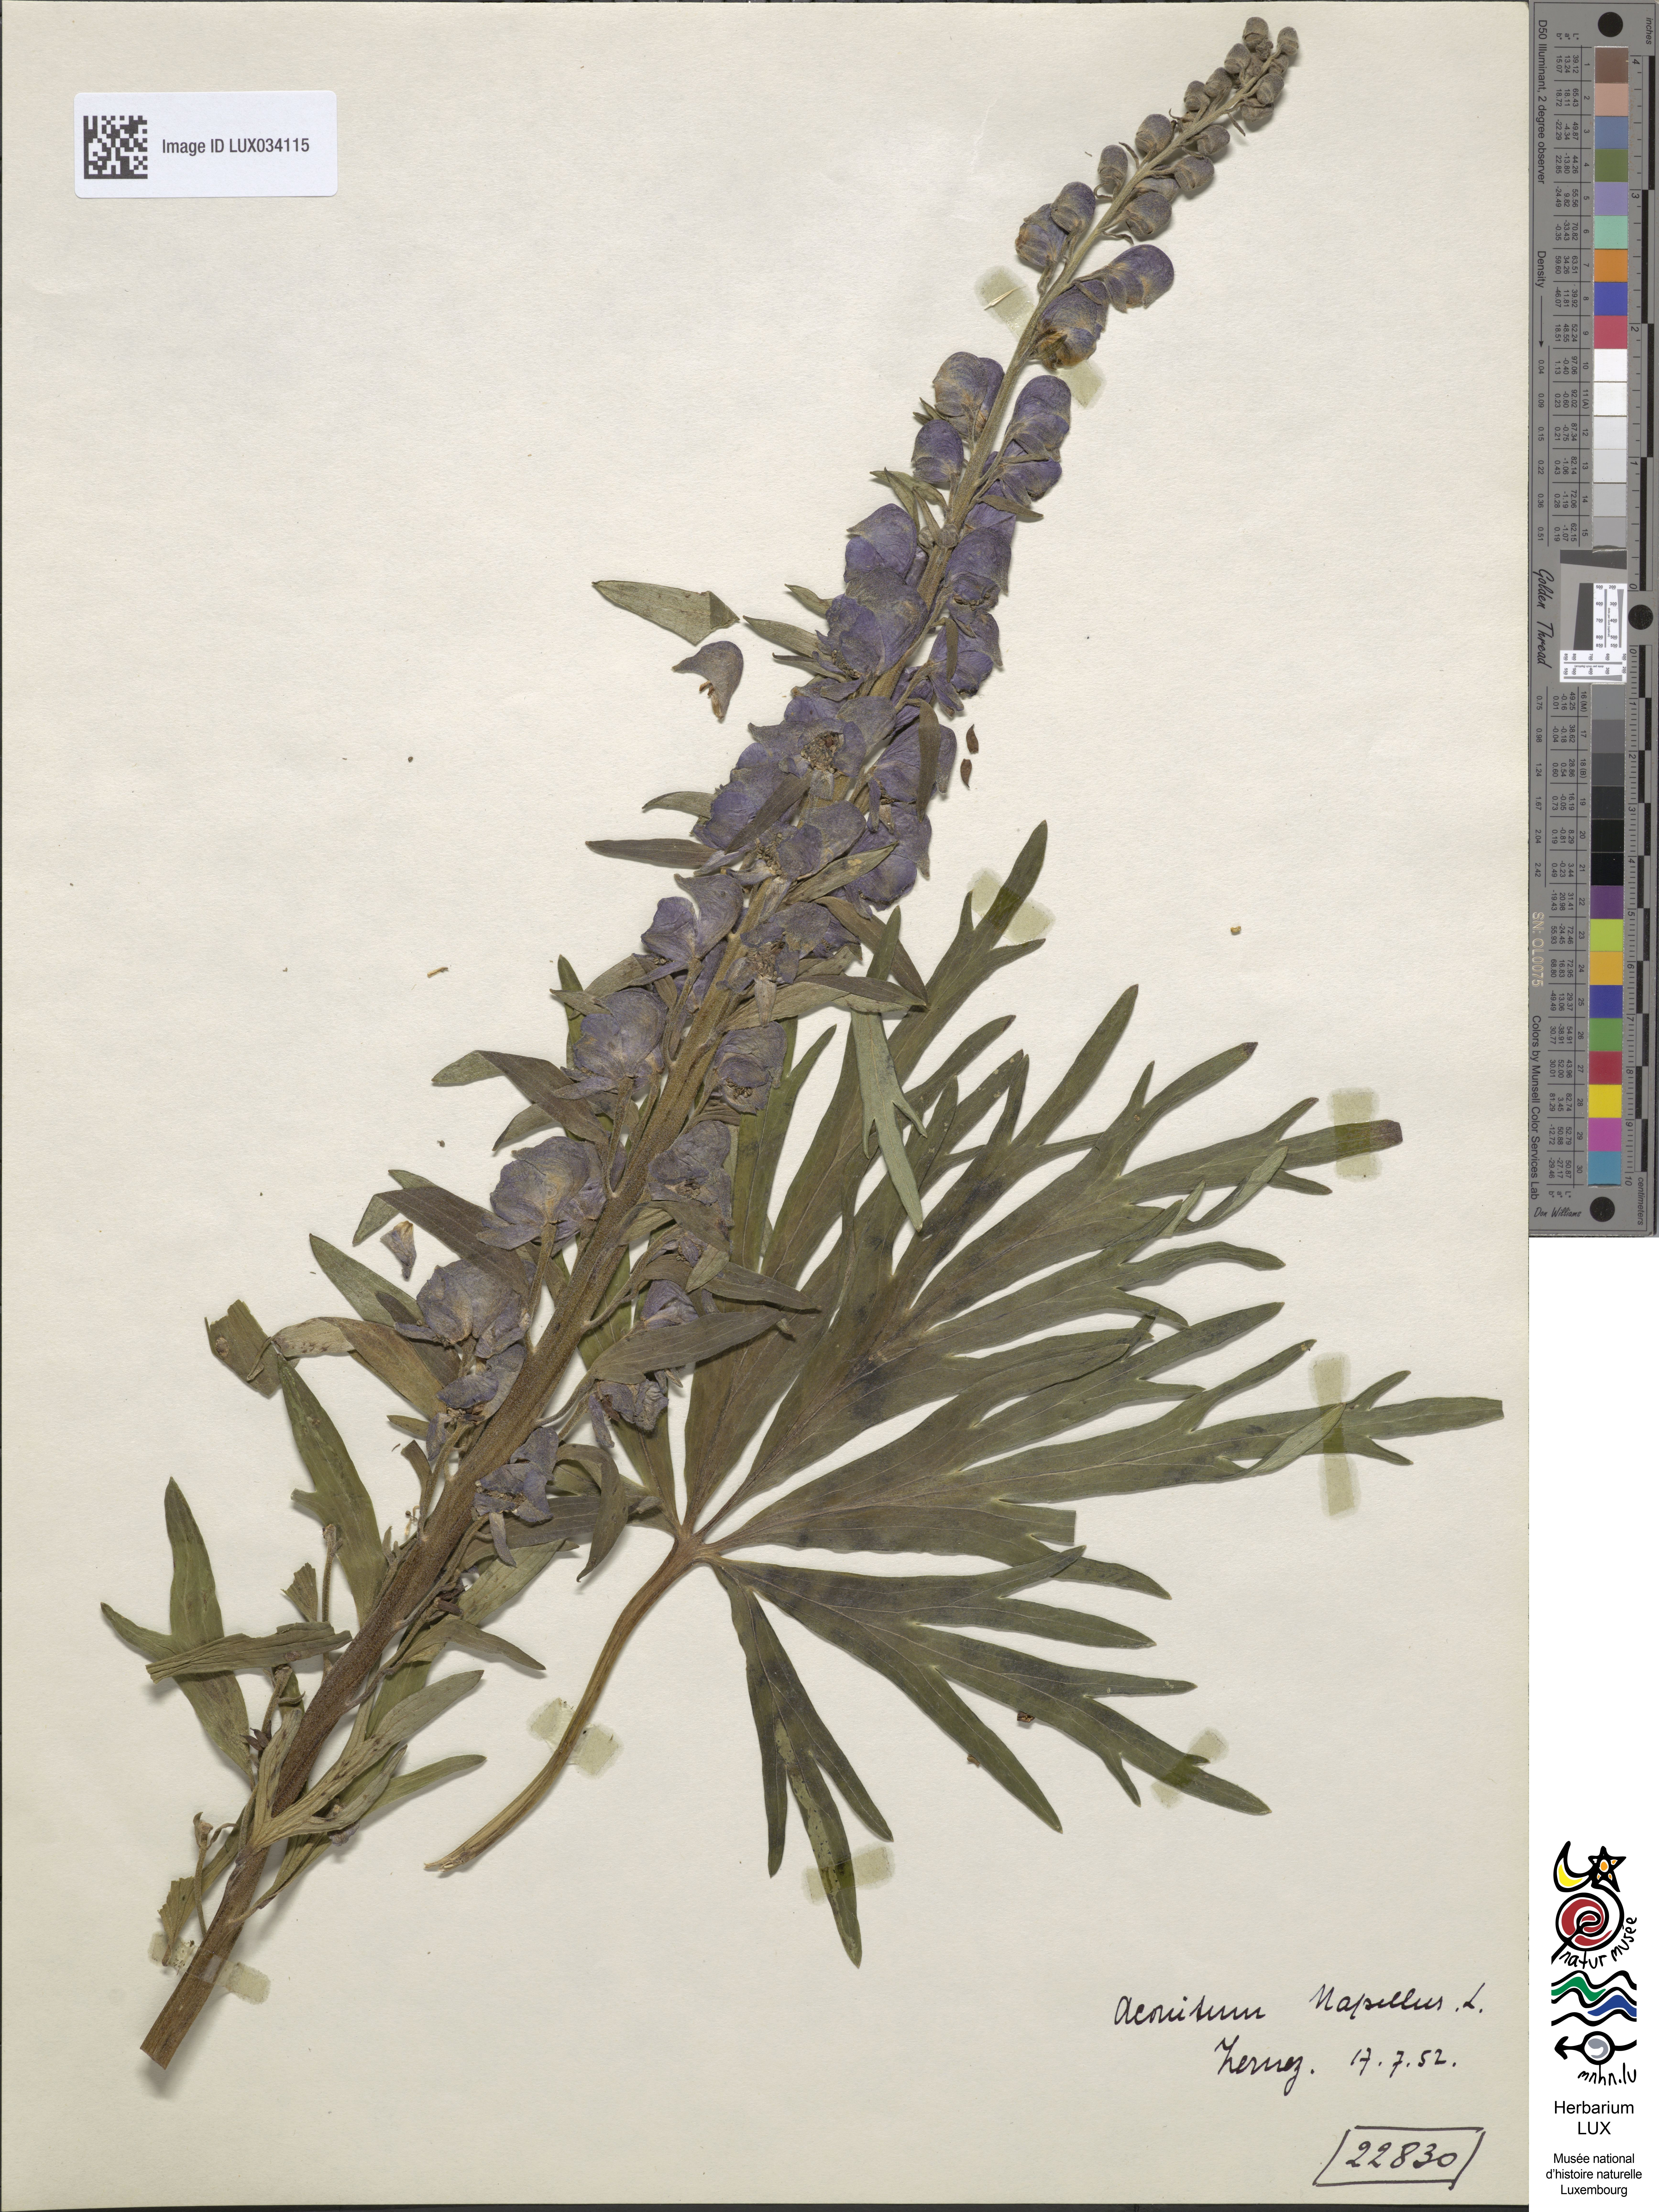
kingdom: Plantae
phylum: Tracheophyta
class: Magnoliopsida
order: Ranunculales
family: Ranunculaceae
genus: Aconitum
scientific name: Aconitum napellus
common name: Garden monkshood
